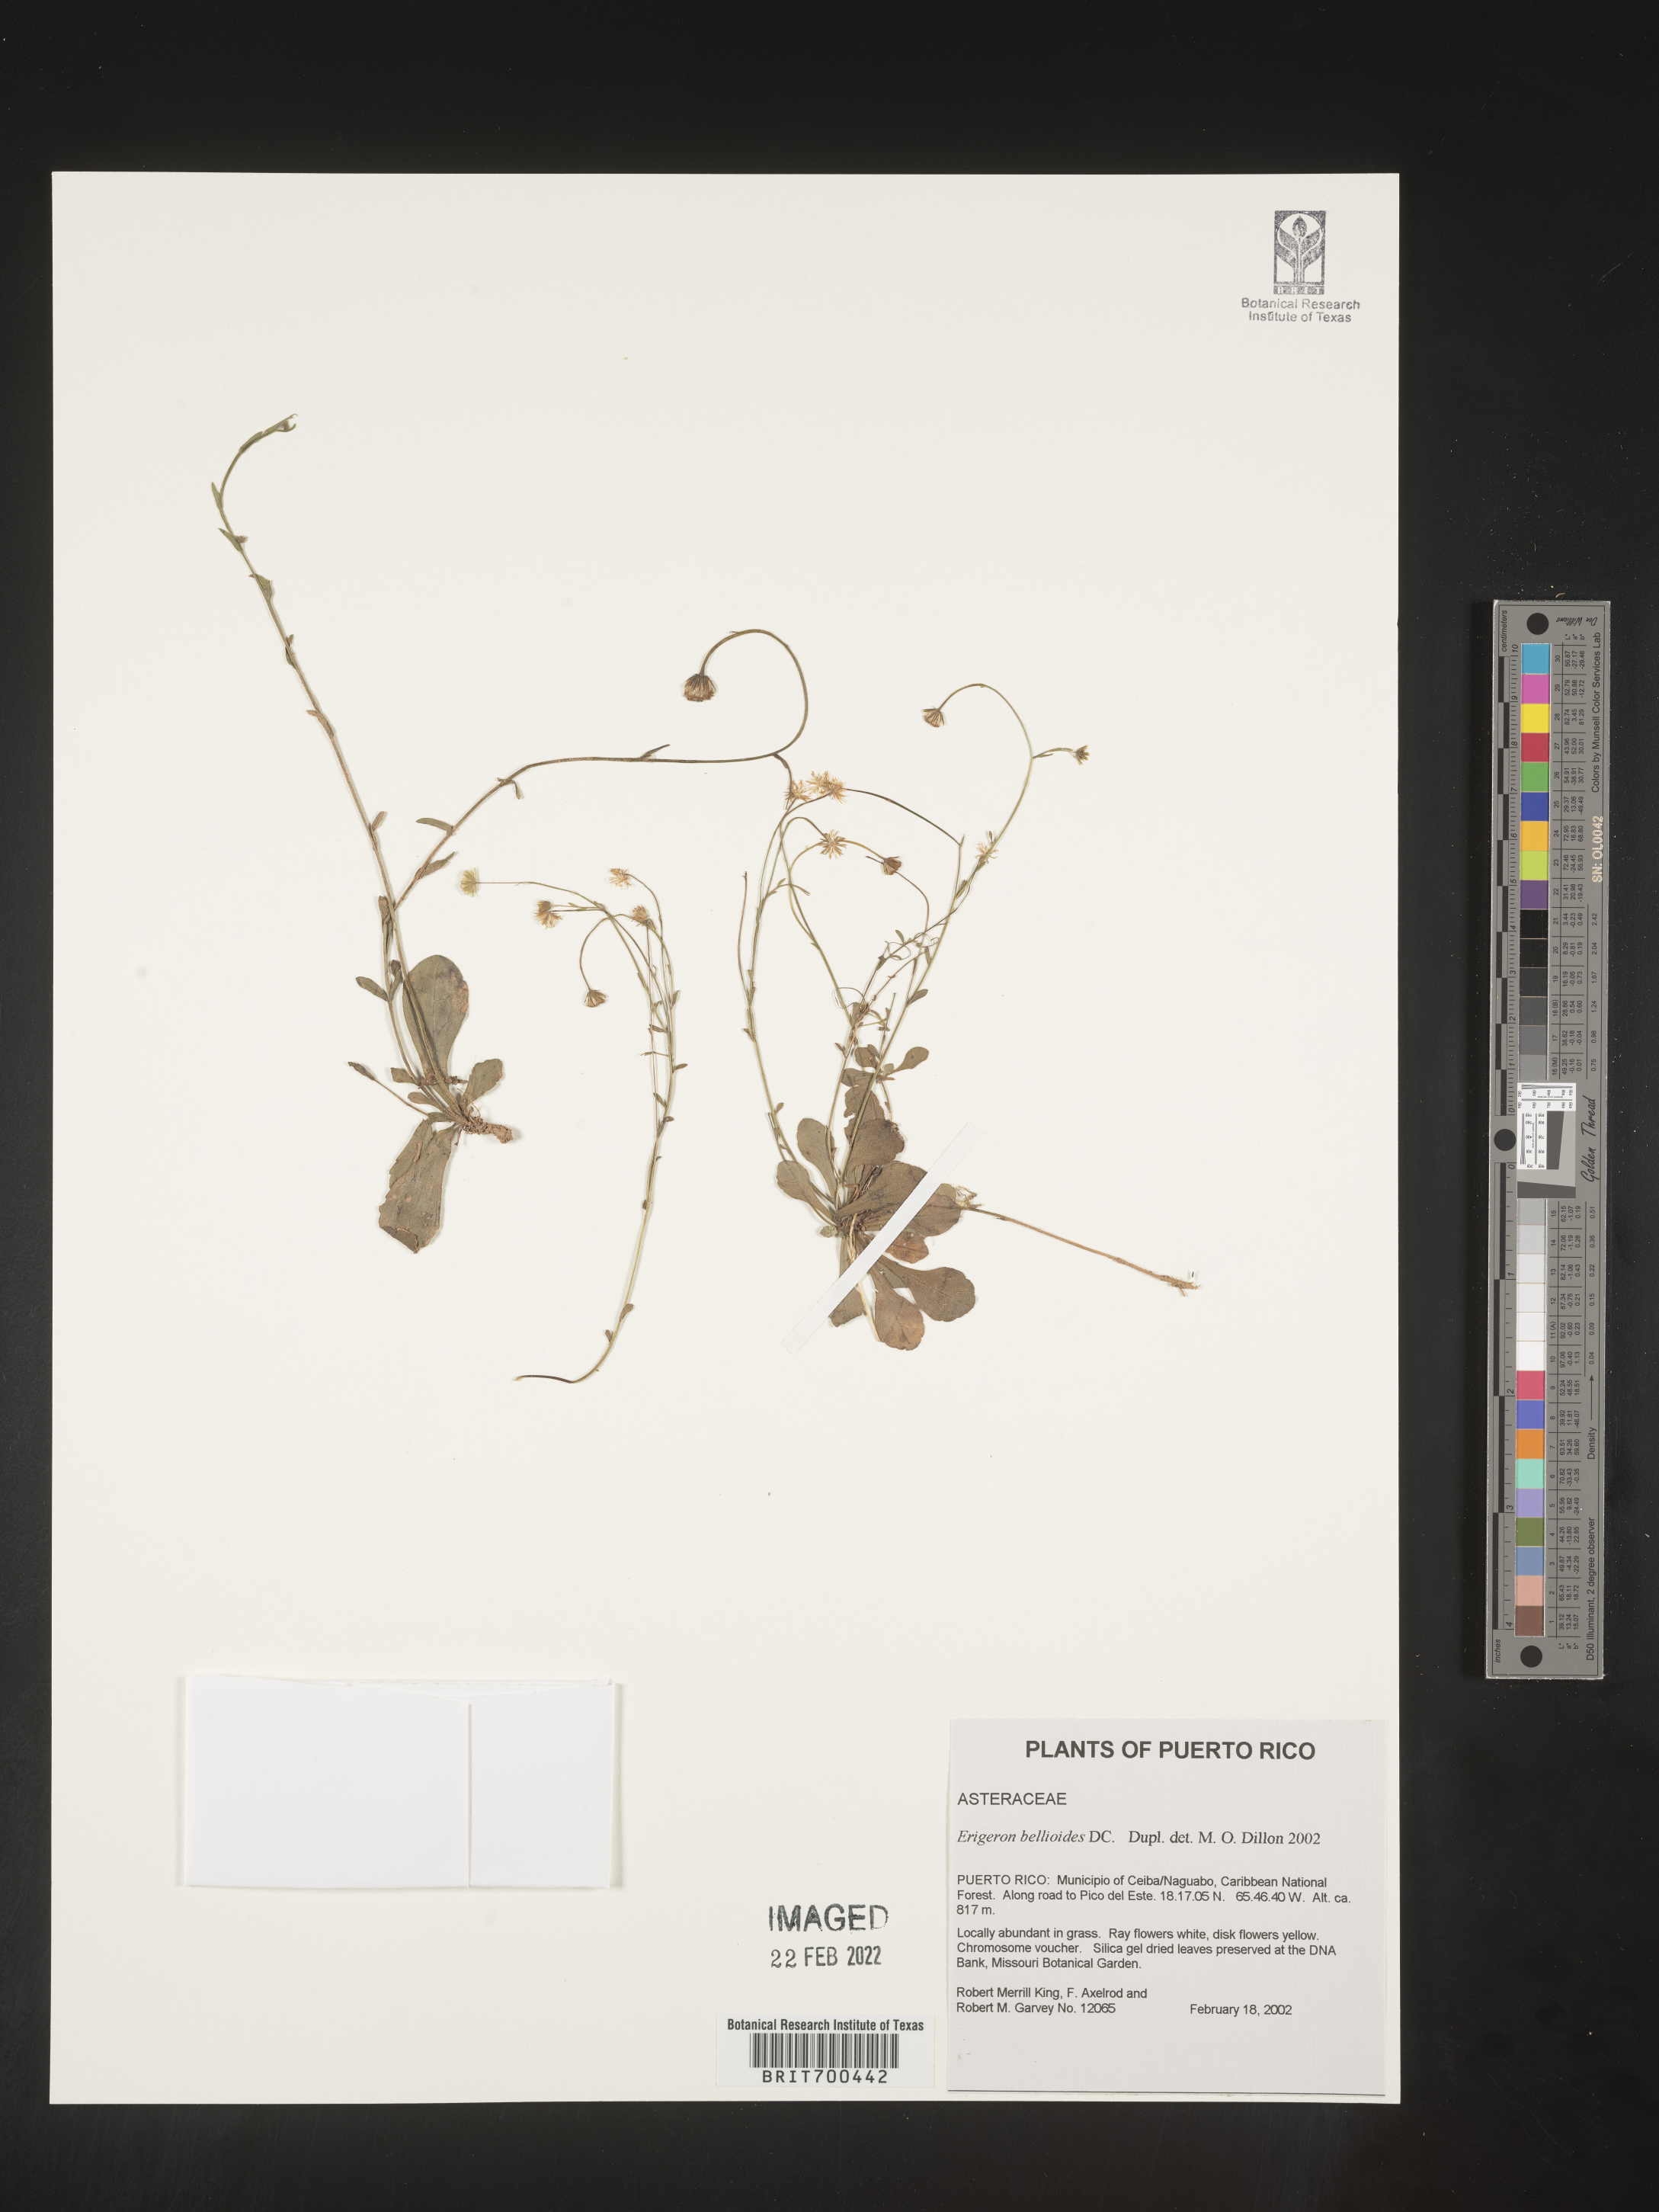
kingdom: Plantae
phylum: Tracheophyta
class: Magnoliopsida
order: Asterales
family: Asteraceae
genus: Erigeron
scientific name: Erigeron
